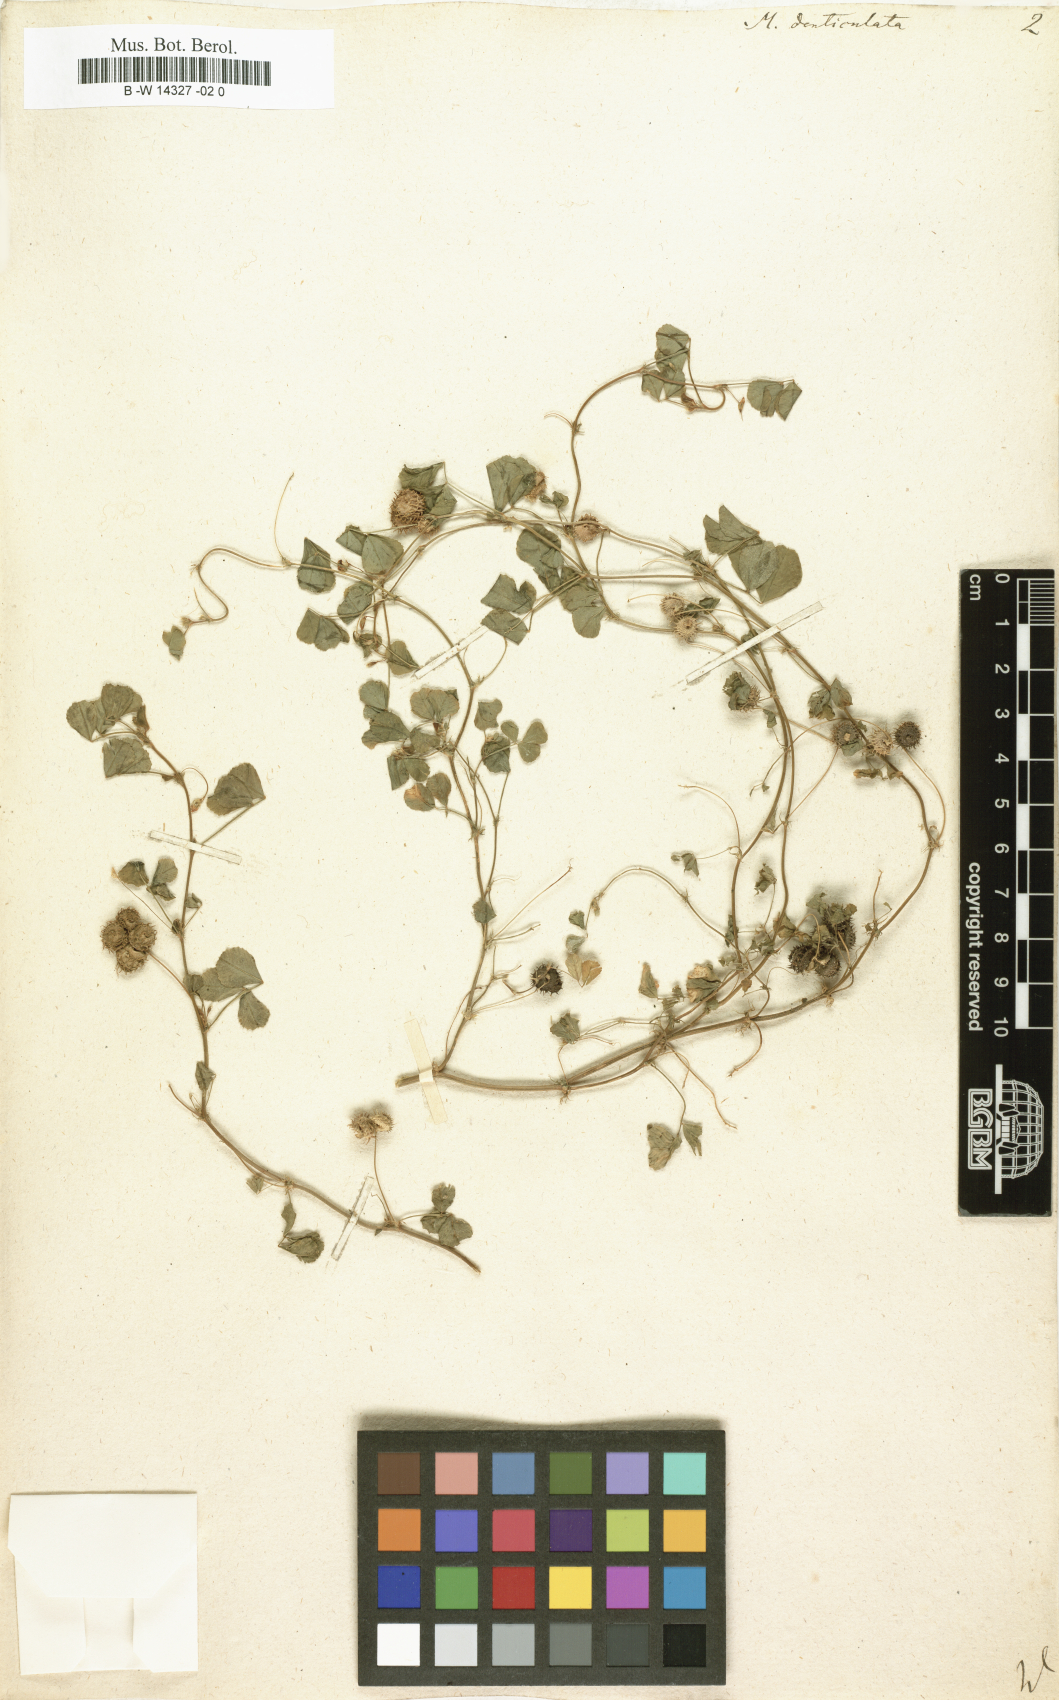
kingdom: Plantae
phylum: Tracheophyta
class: Magnoliopsida
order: Fabales
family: Fabaceae
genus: Medicago
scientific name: Medicago polymorpha
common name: Burclover
